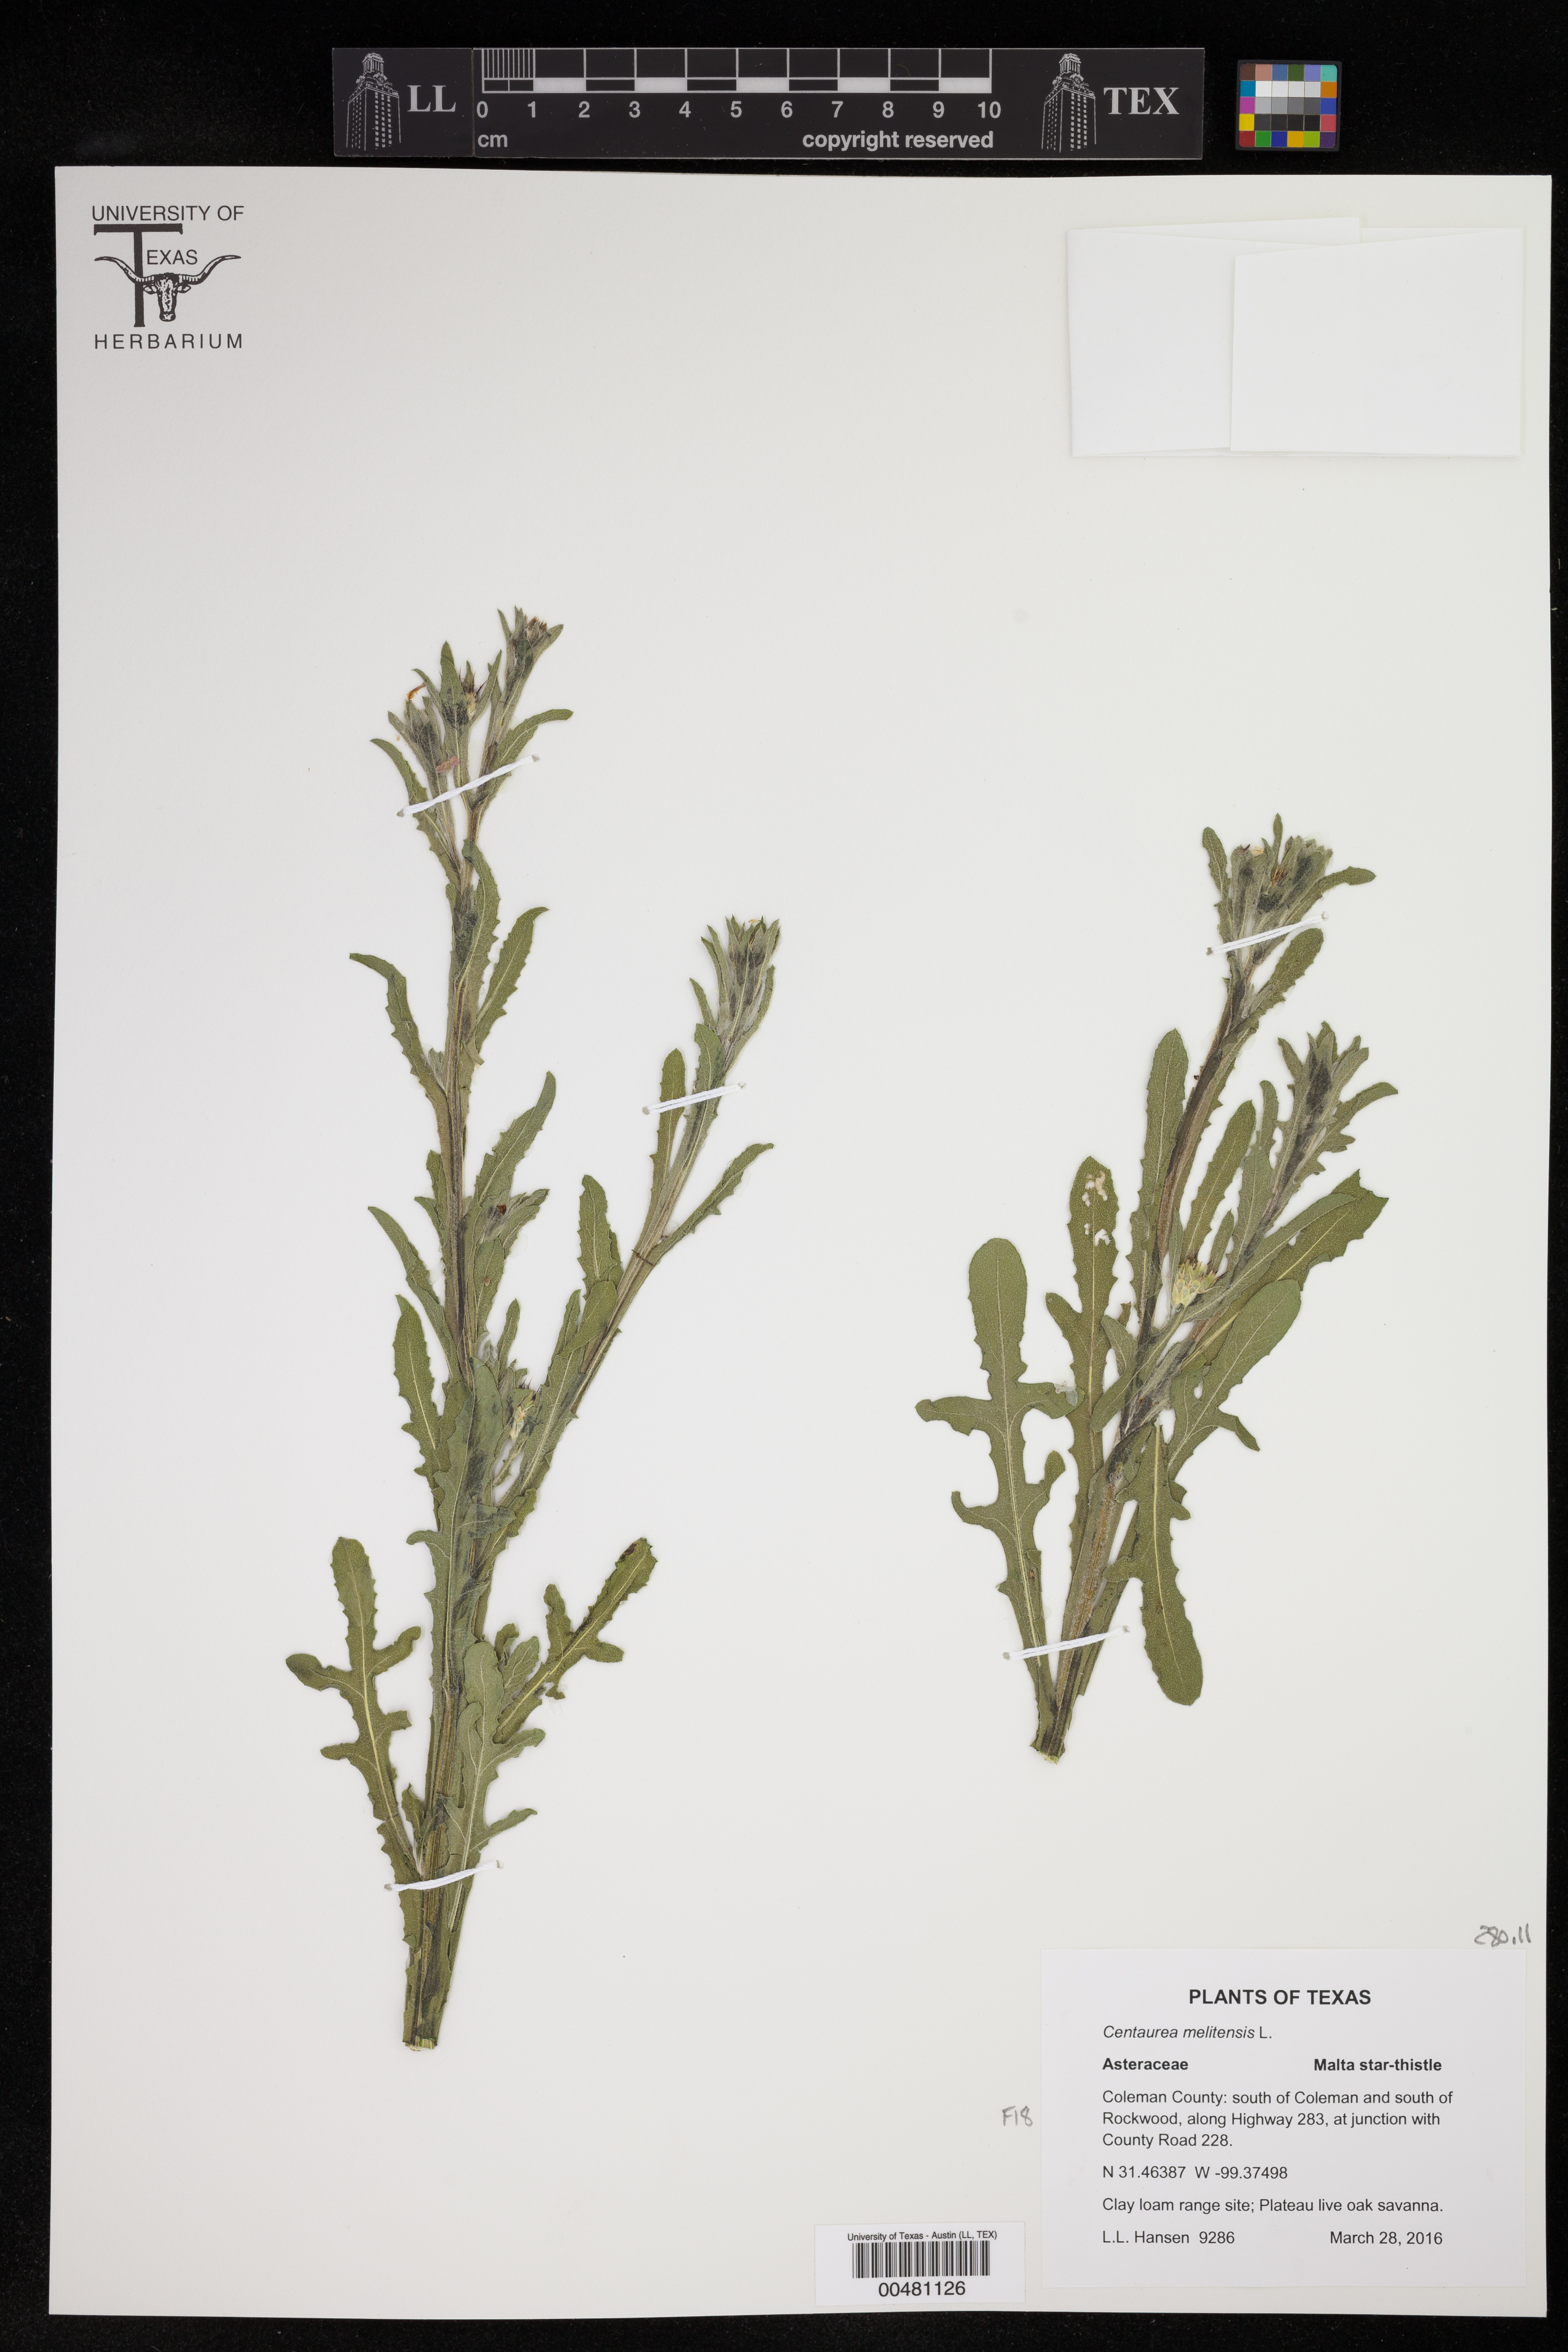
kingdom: Plantae
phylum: Tracheophyta
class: Magnoliopsida
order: Asterales
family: Asteraceae
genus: Centaurea
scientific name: Centaurea melitensis
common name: Maltese star-thistle
